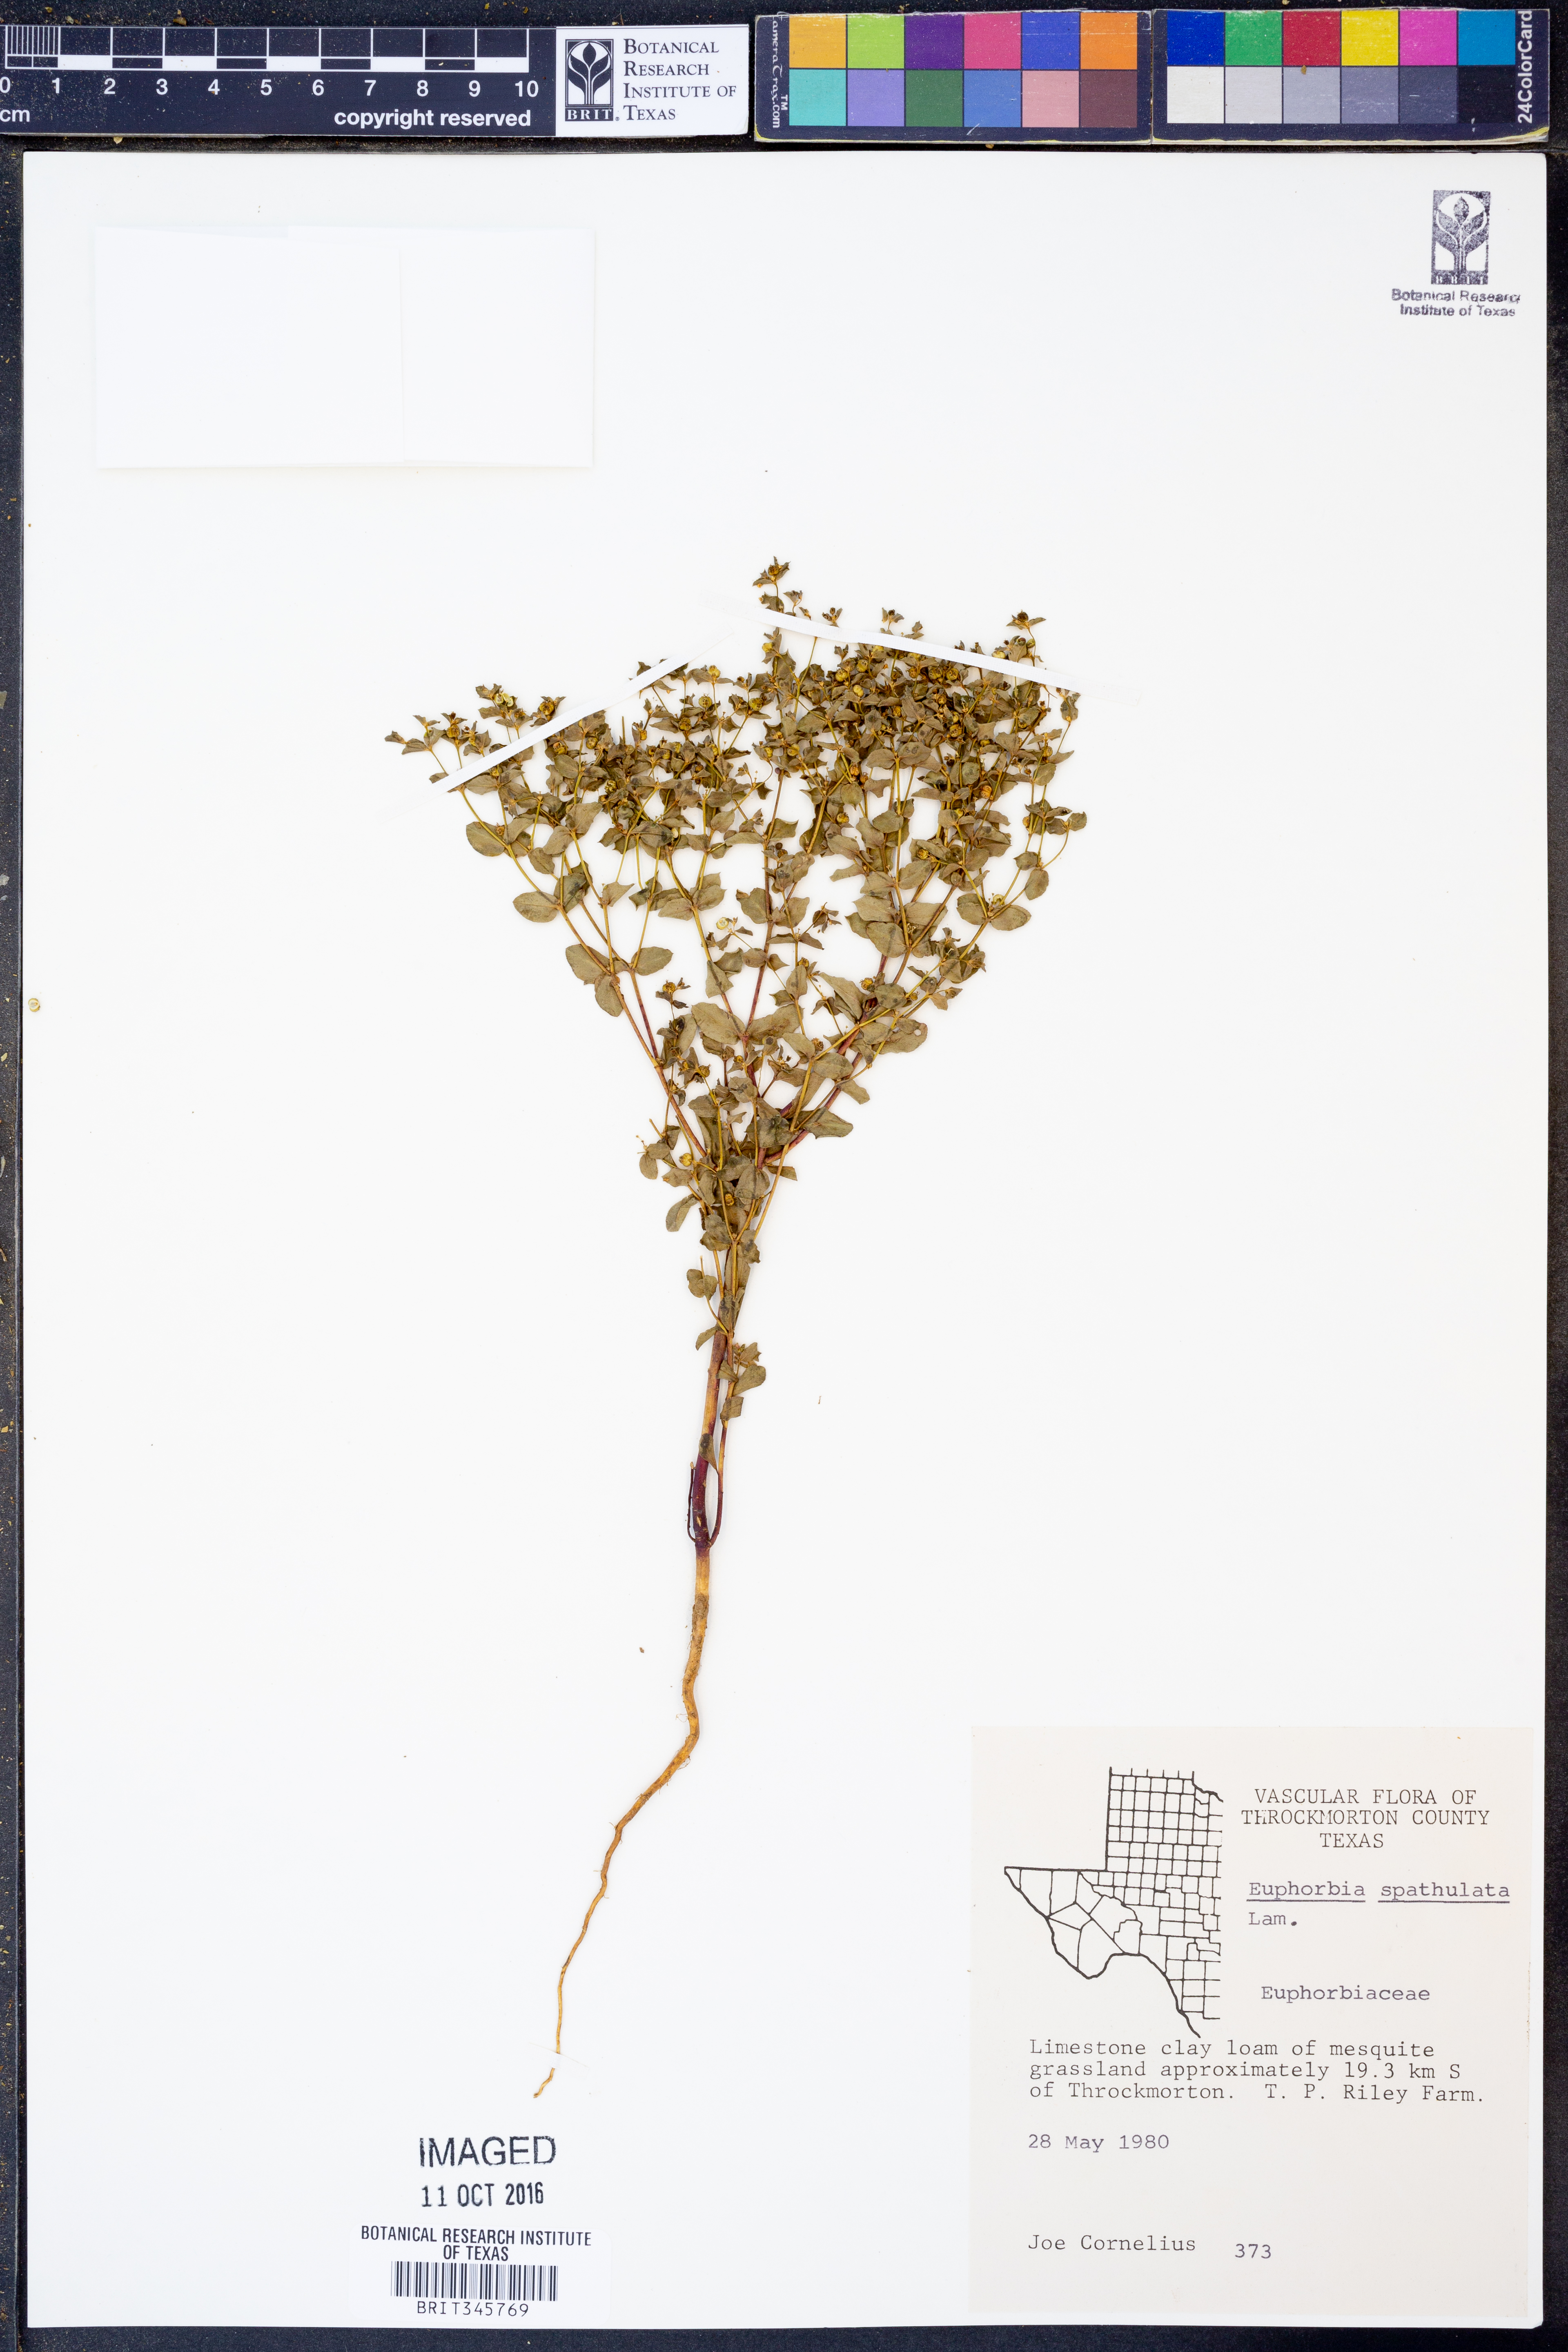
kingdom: Plantae
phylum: Tracheophyta
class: Magnoliopsida
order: Malpighiales
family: Euphorbiaceae
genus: Euphorbia
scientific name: Euphorbia spathulata
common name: Blunt spurge
